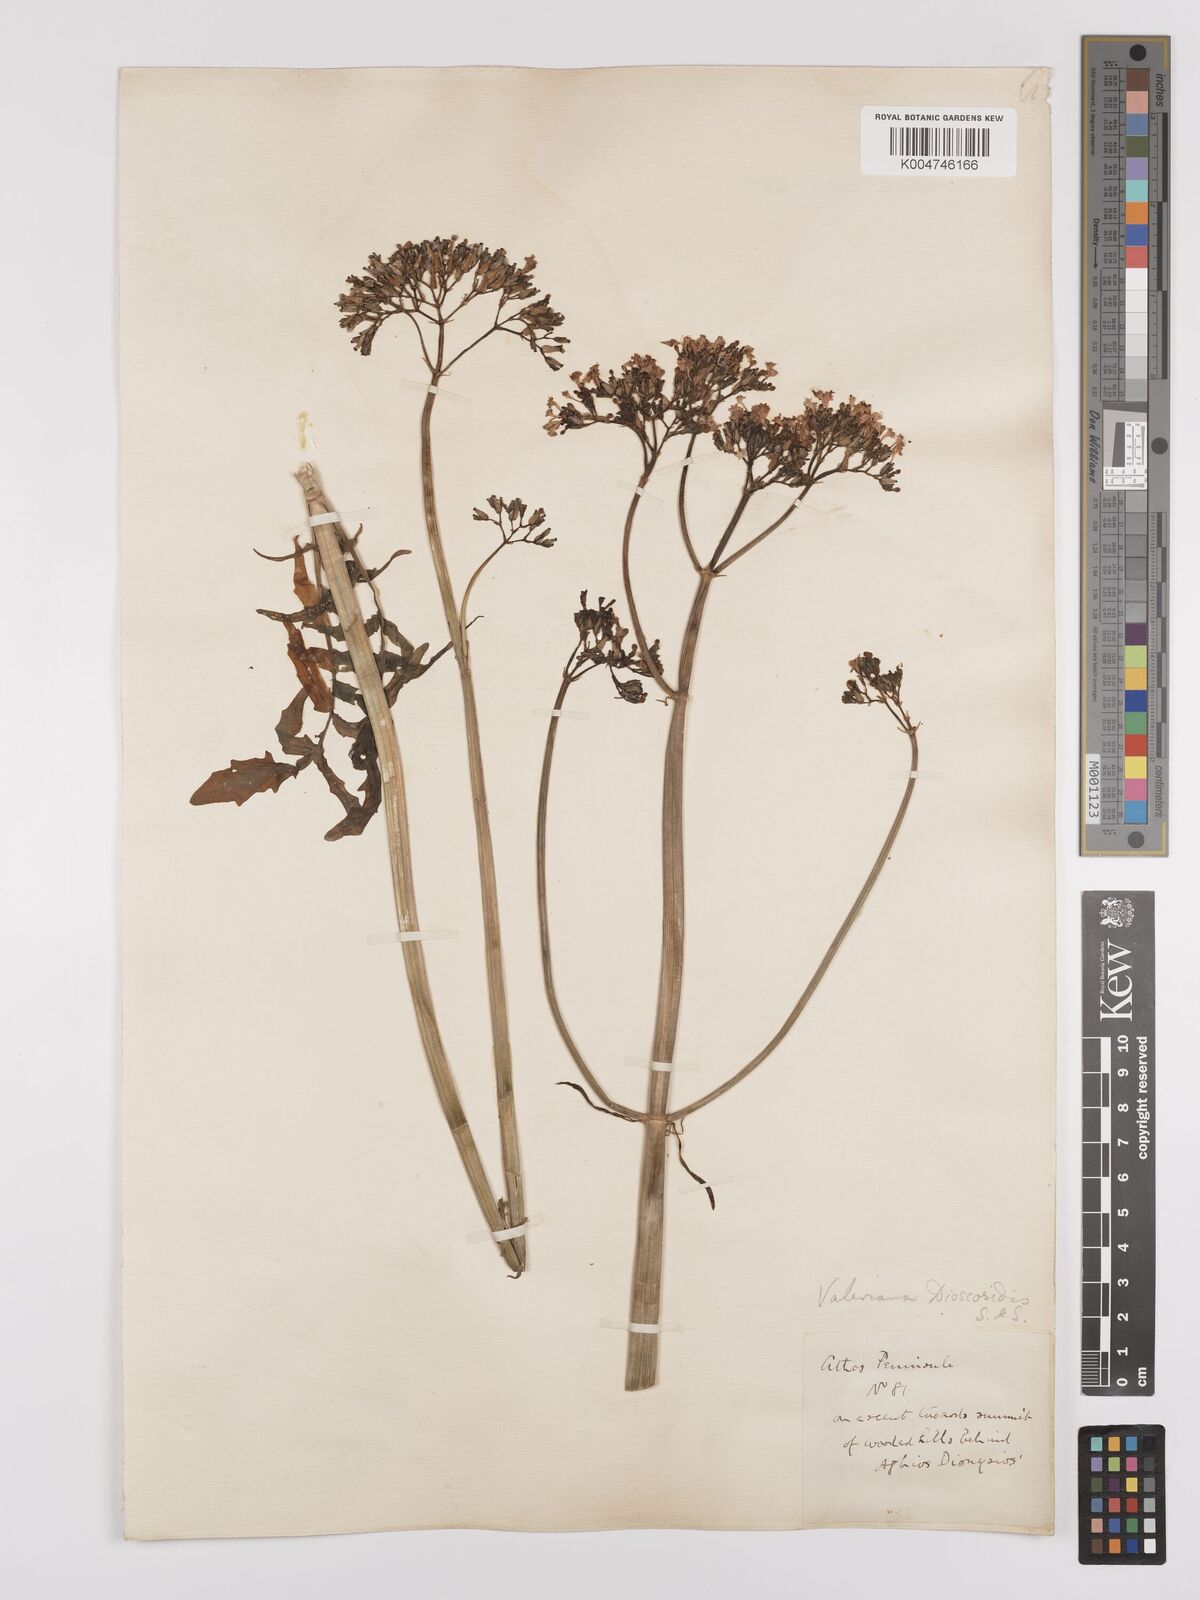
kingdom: Plantae
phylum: Tracheophyta
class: Magnoliopsida
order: Dipsacales
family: Caprifoliaceae
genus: Valeriana
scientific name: Valeriana dioscoridis
